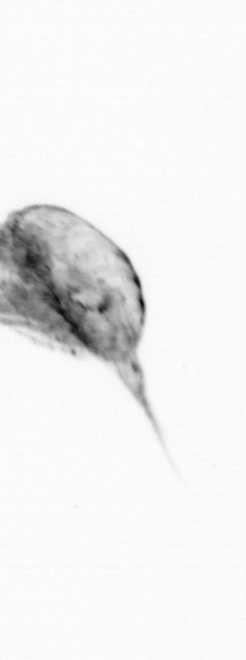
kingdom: Animalia
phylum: Arthropoda
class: Copepoda
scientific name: Copepoda
